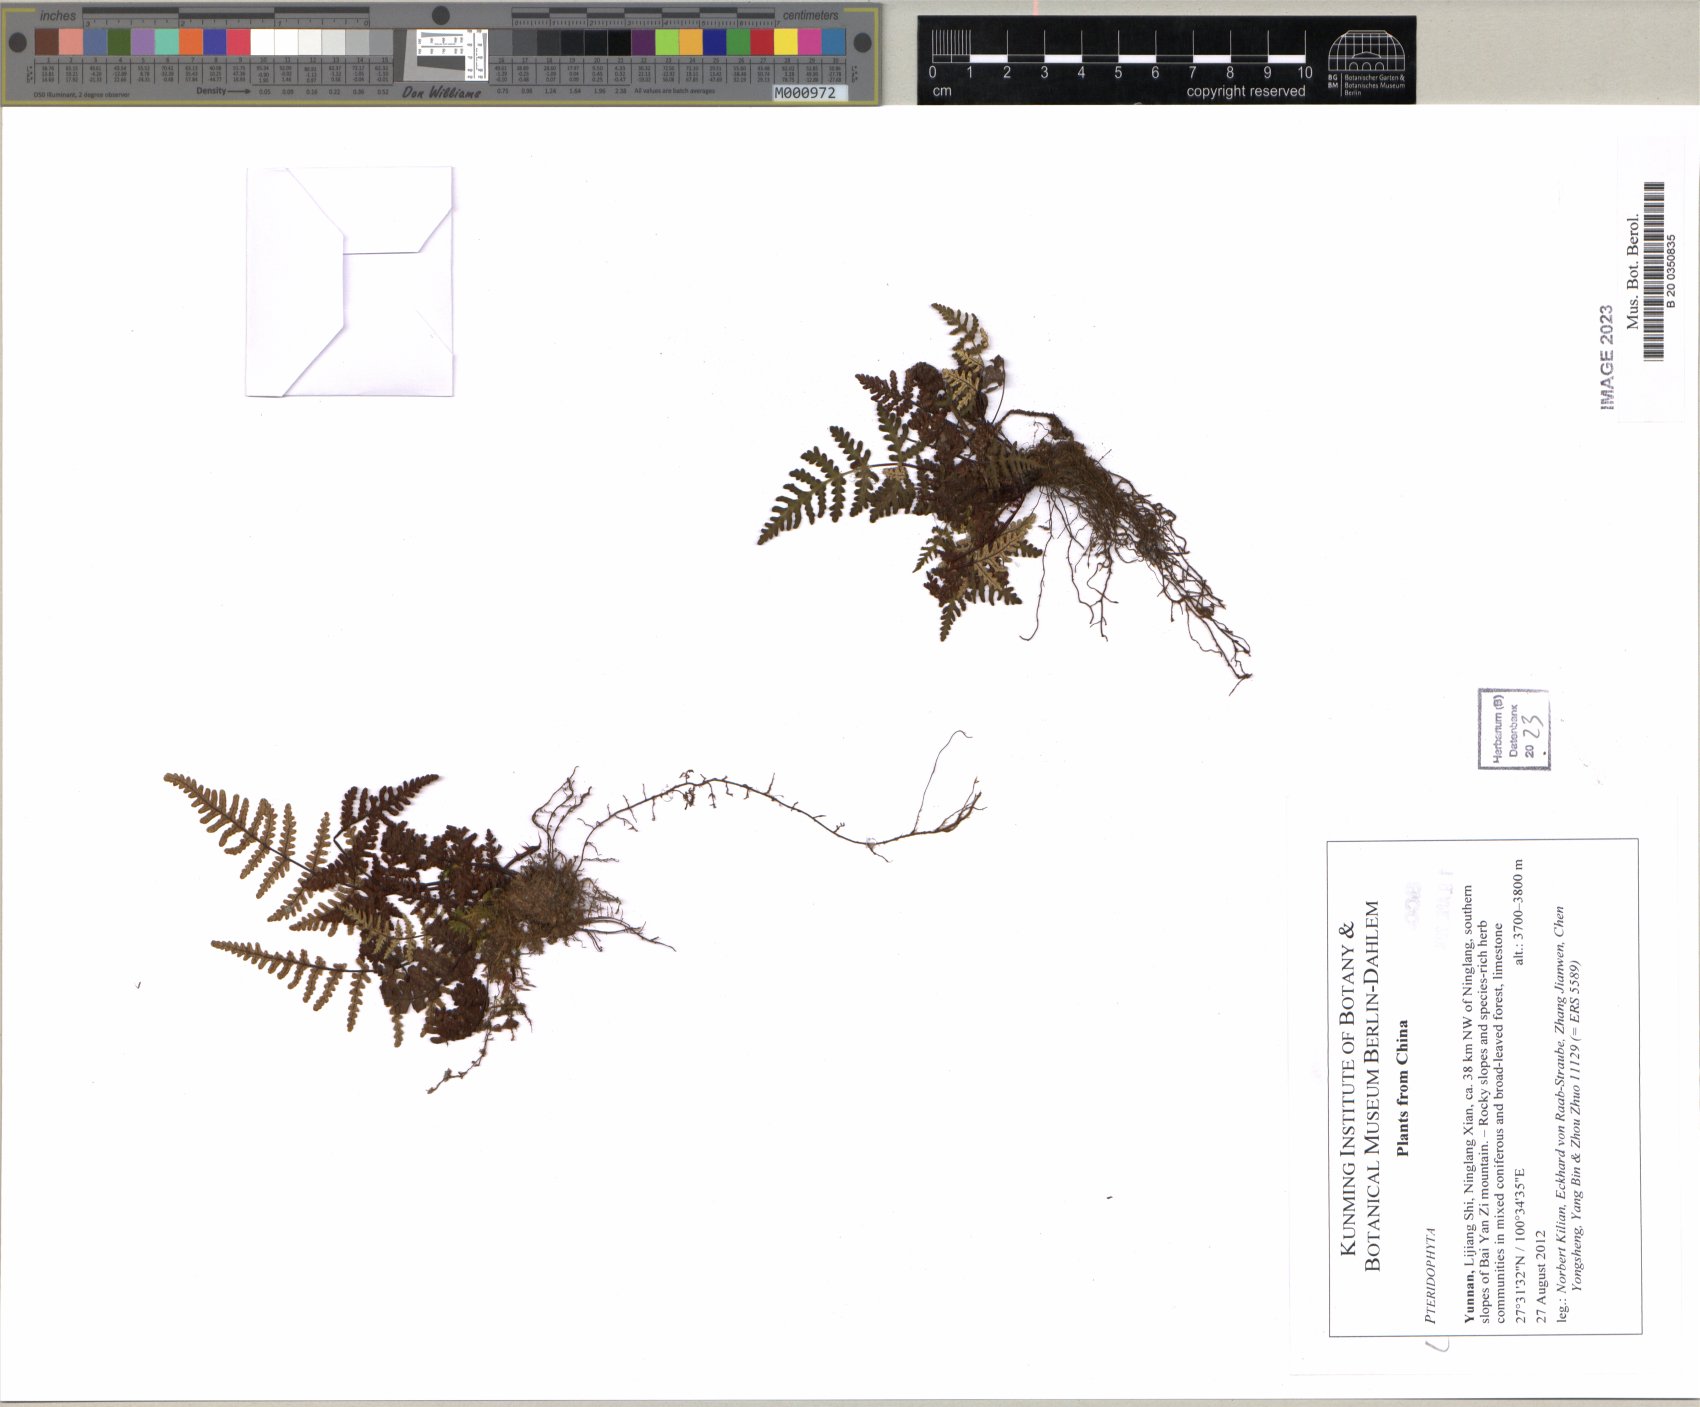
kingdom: Plantae
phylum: Tracheophyta
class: Polypodiopsida
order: Polypodiales
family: Pteridaceae
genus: Cheilanthes
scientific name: Cheilanthes
